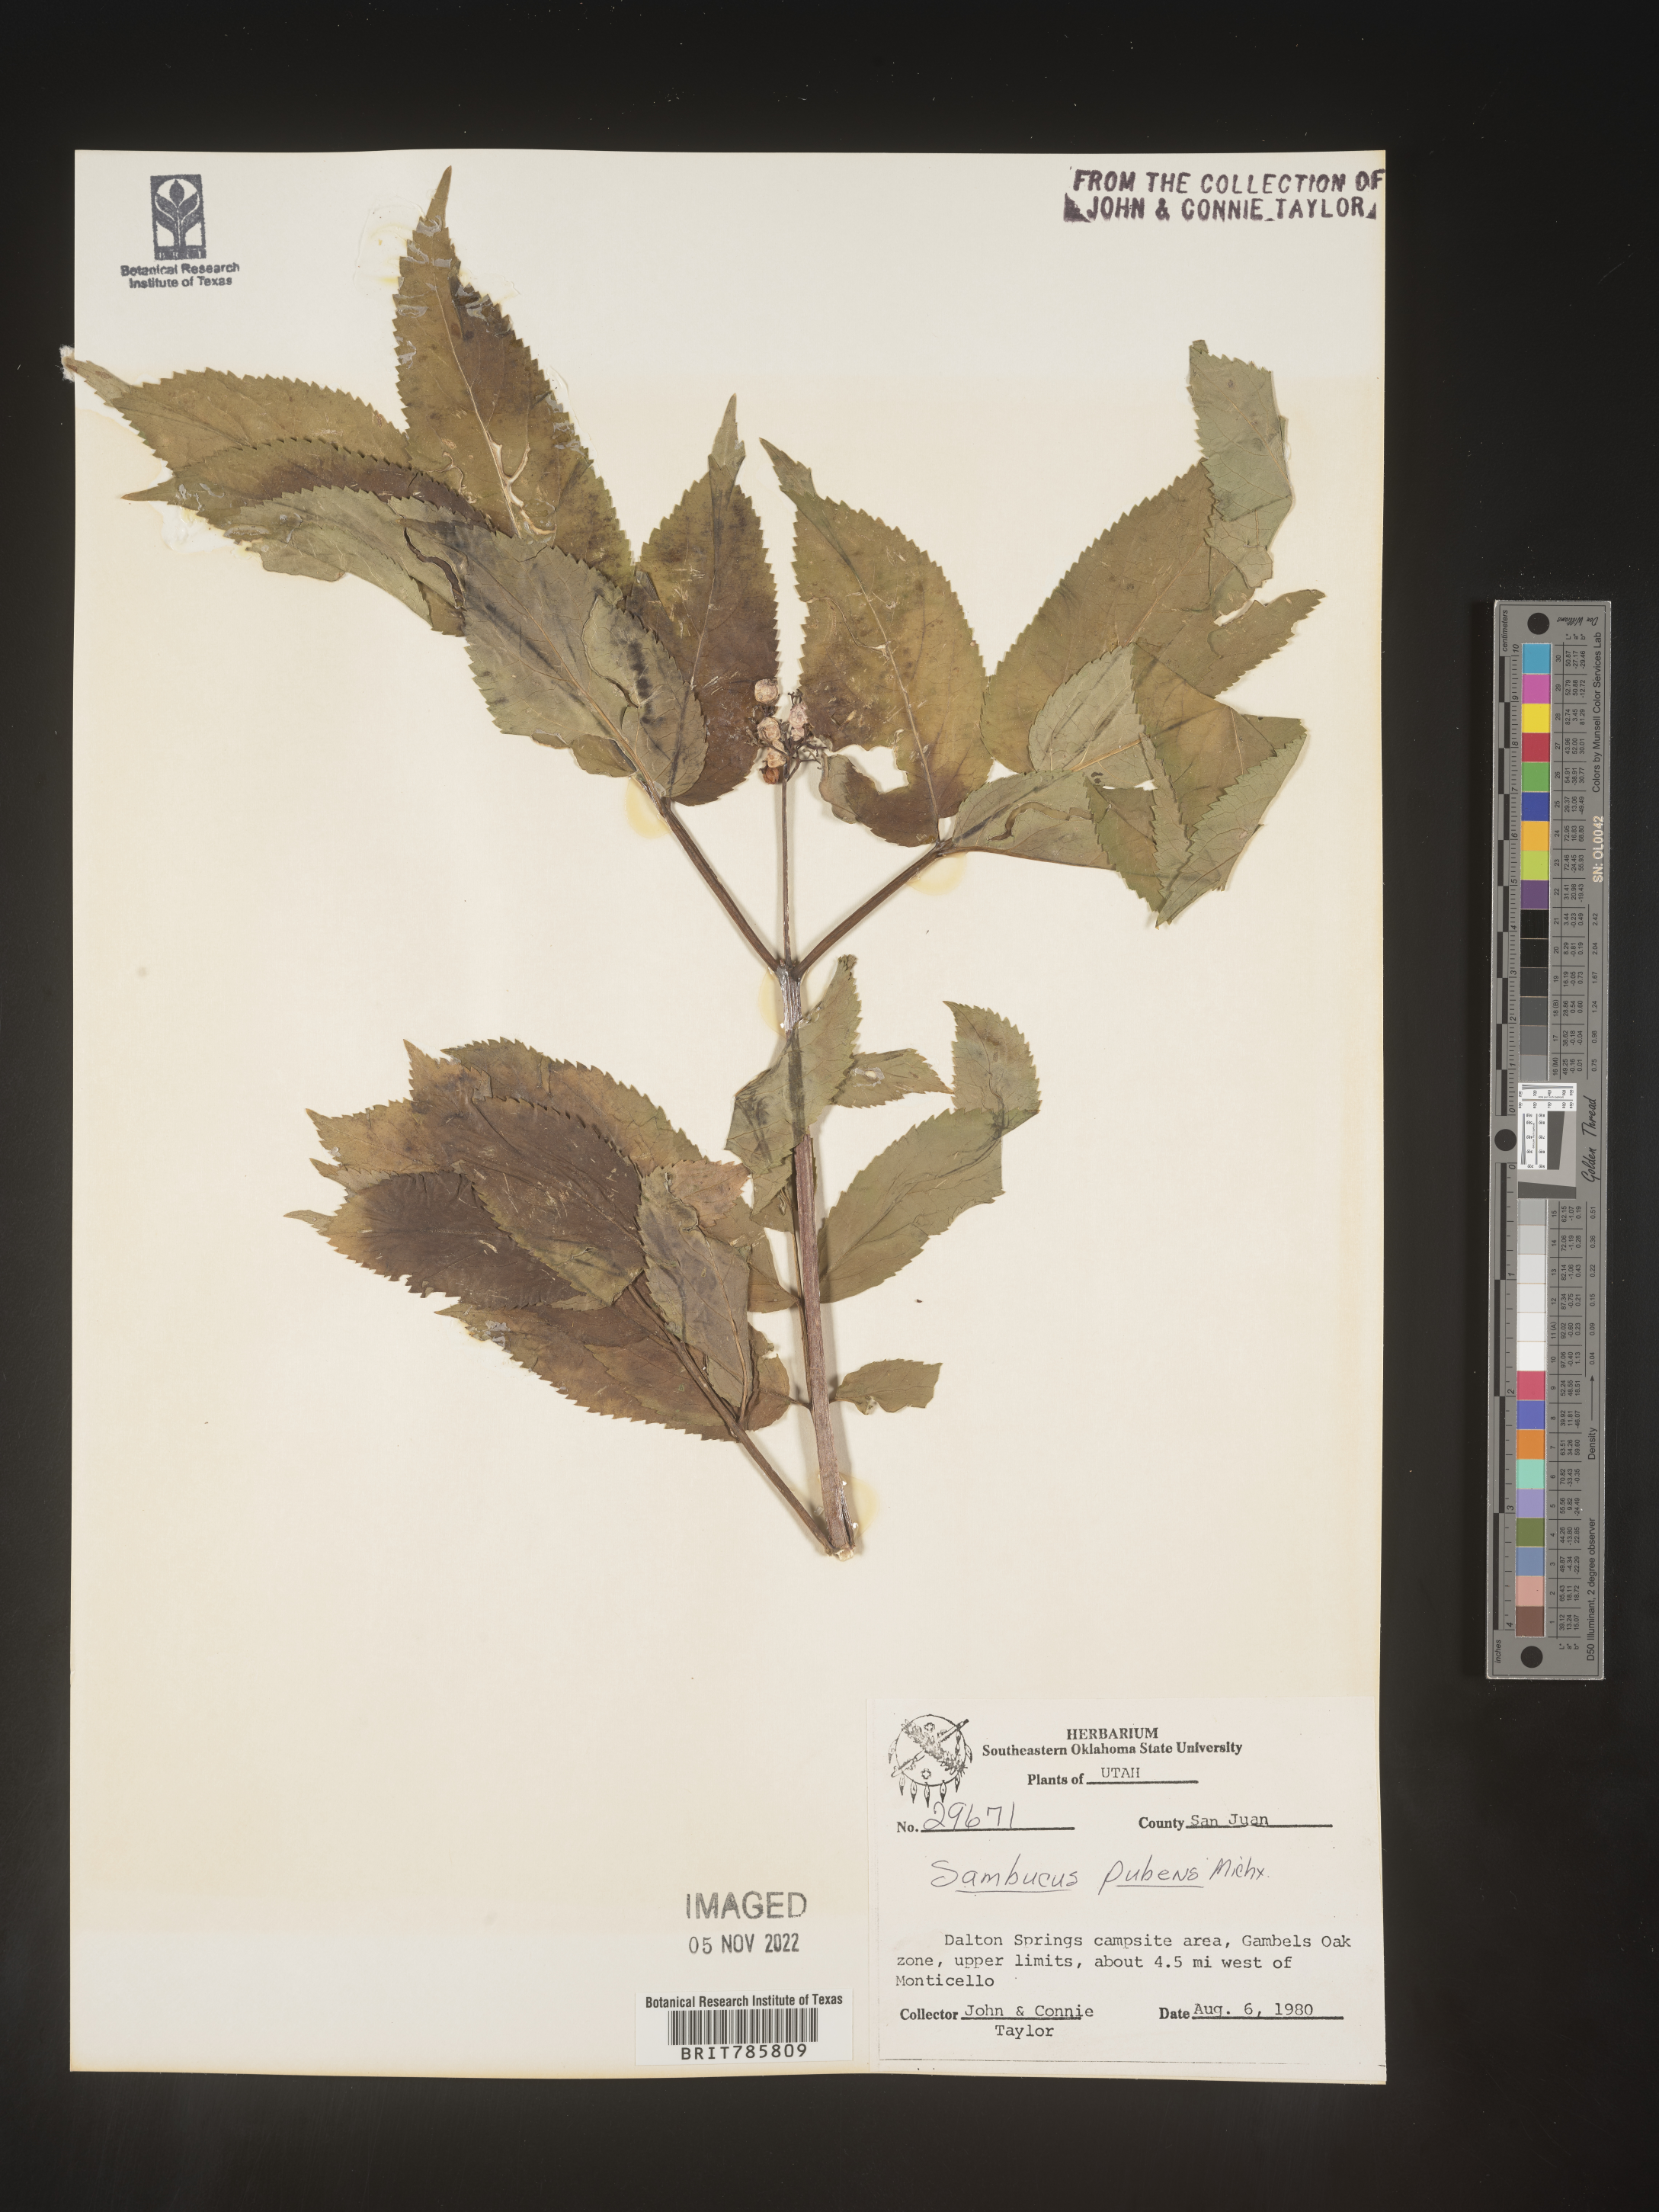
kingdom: Plantae
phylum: Tracheophyta
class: Magnoliopsida
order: Dipsacales
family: Viburnaceae
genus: Sambucus
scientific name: Sambucus
